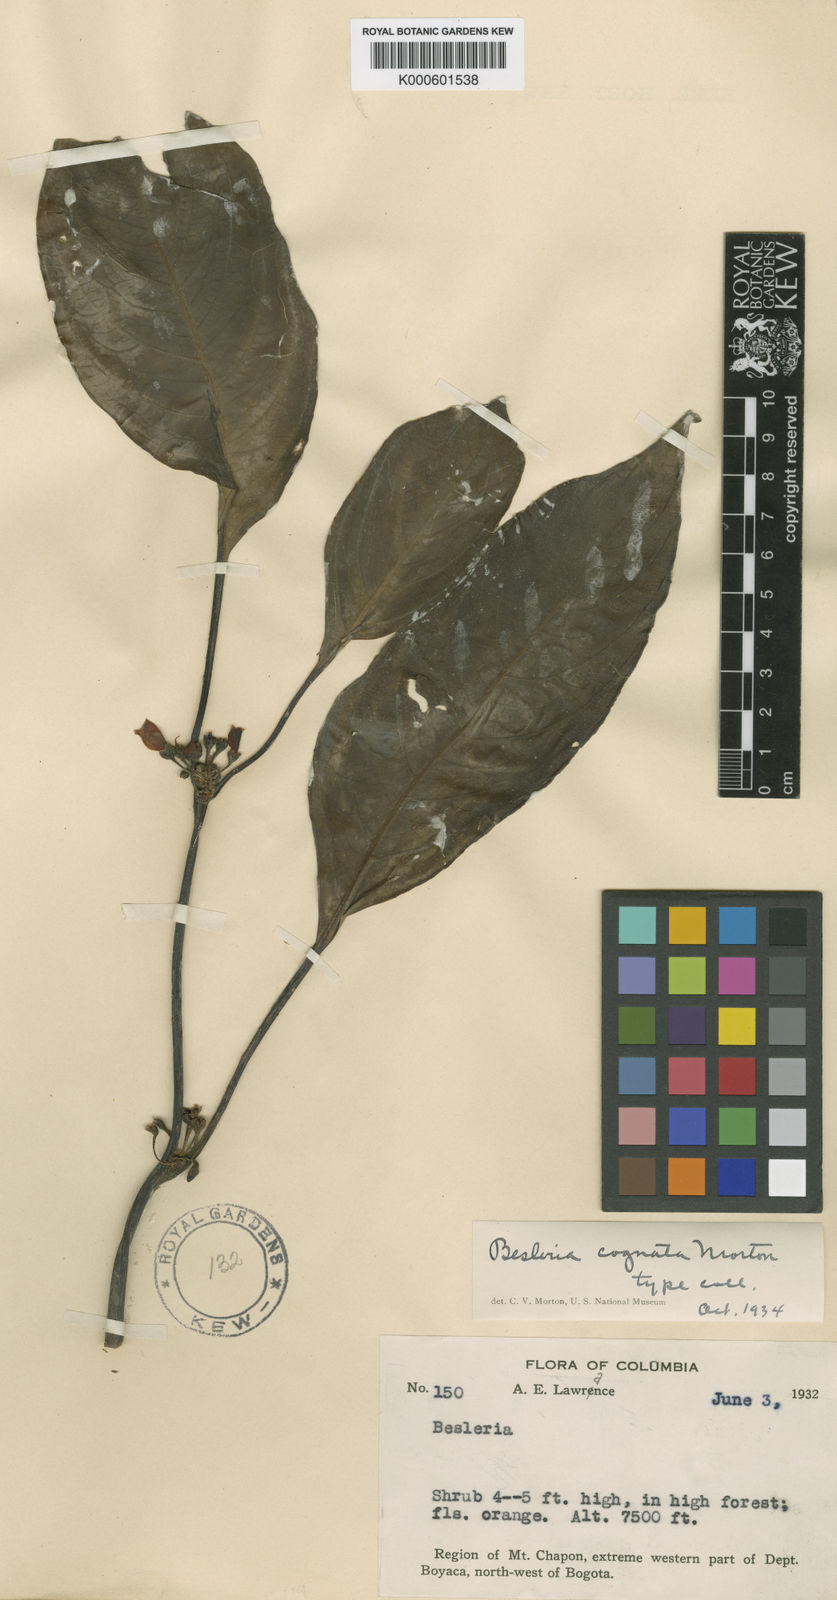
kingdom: Plantae
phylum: Tracheophyta
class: Magnoliopsida
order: Lamiales
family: Gesneriaceae
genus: Besleria
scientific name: Besleria cognata
